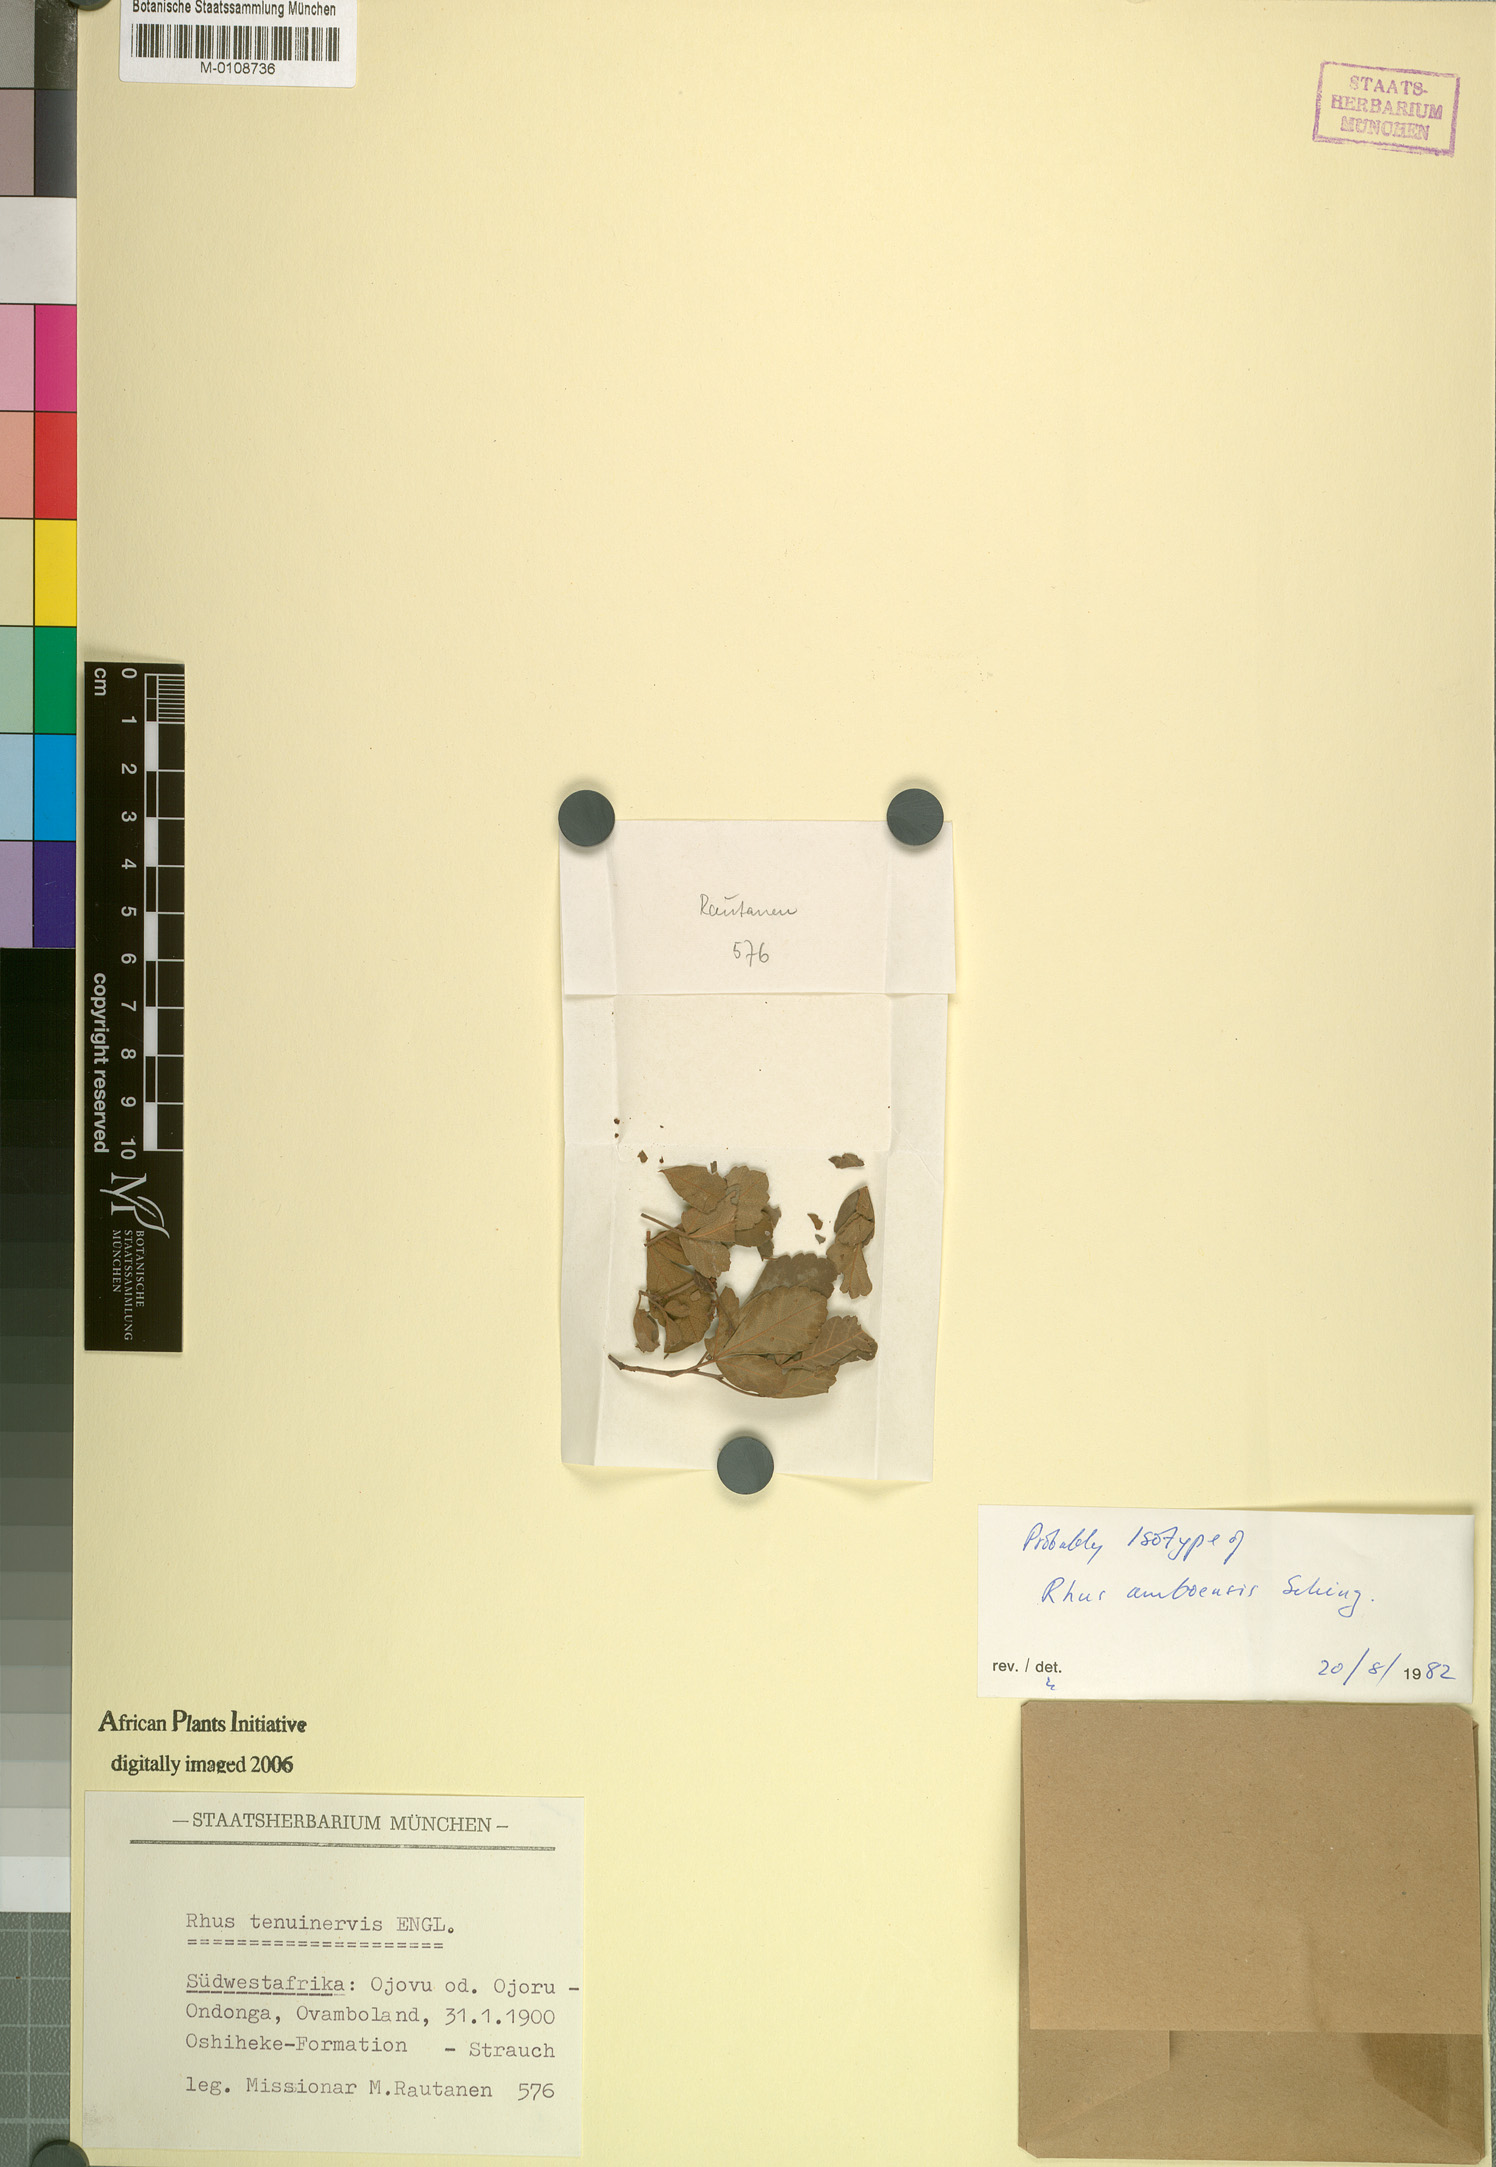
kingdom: Plantae
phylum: Tracheophyta
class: Magnoliopsida
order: Sapindales
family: Anacardiaceae
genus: Searsia
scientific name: Searsia tenuinervis
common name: Hyaena taaibos
